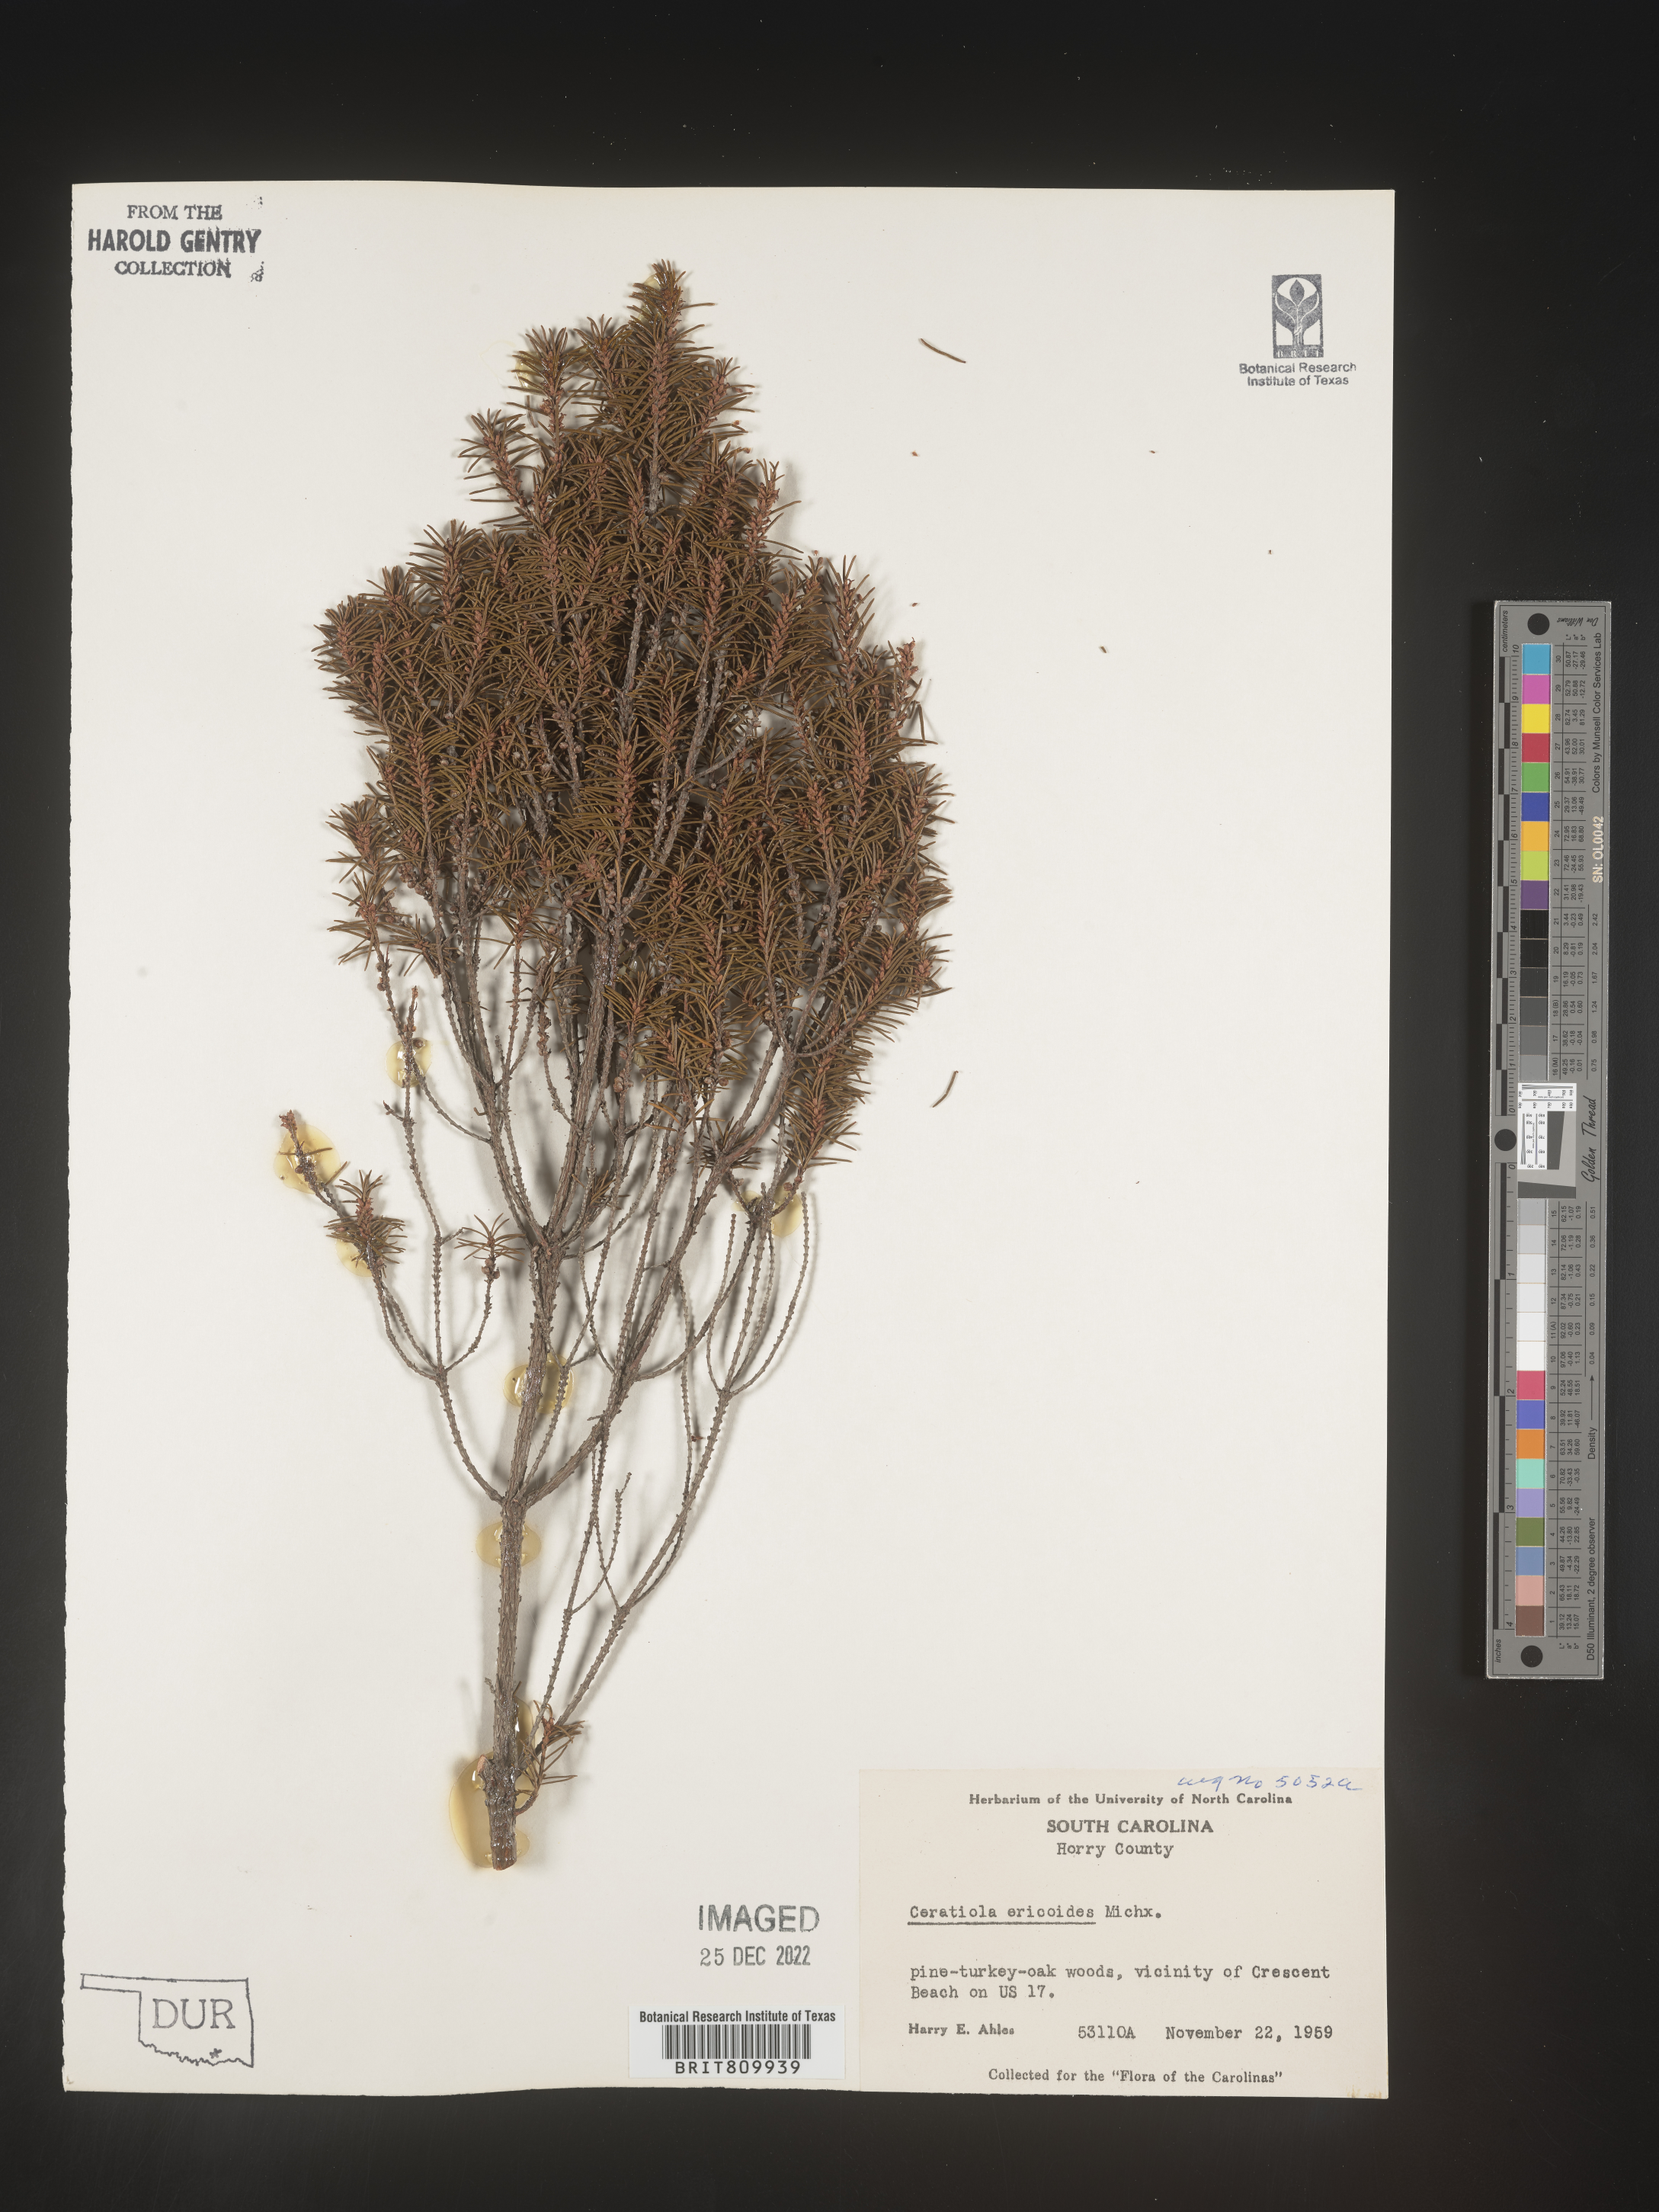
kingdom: Plantae
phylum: Tracheophyta
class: Magnoliopsida
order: Ericales
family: Ericaceae
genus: Ceratiola
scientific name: Ceratiola ericoides
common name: Sandhill-rosemary
